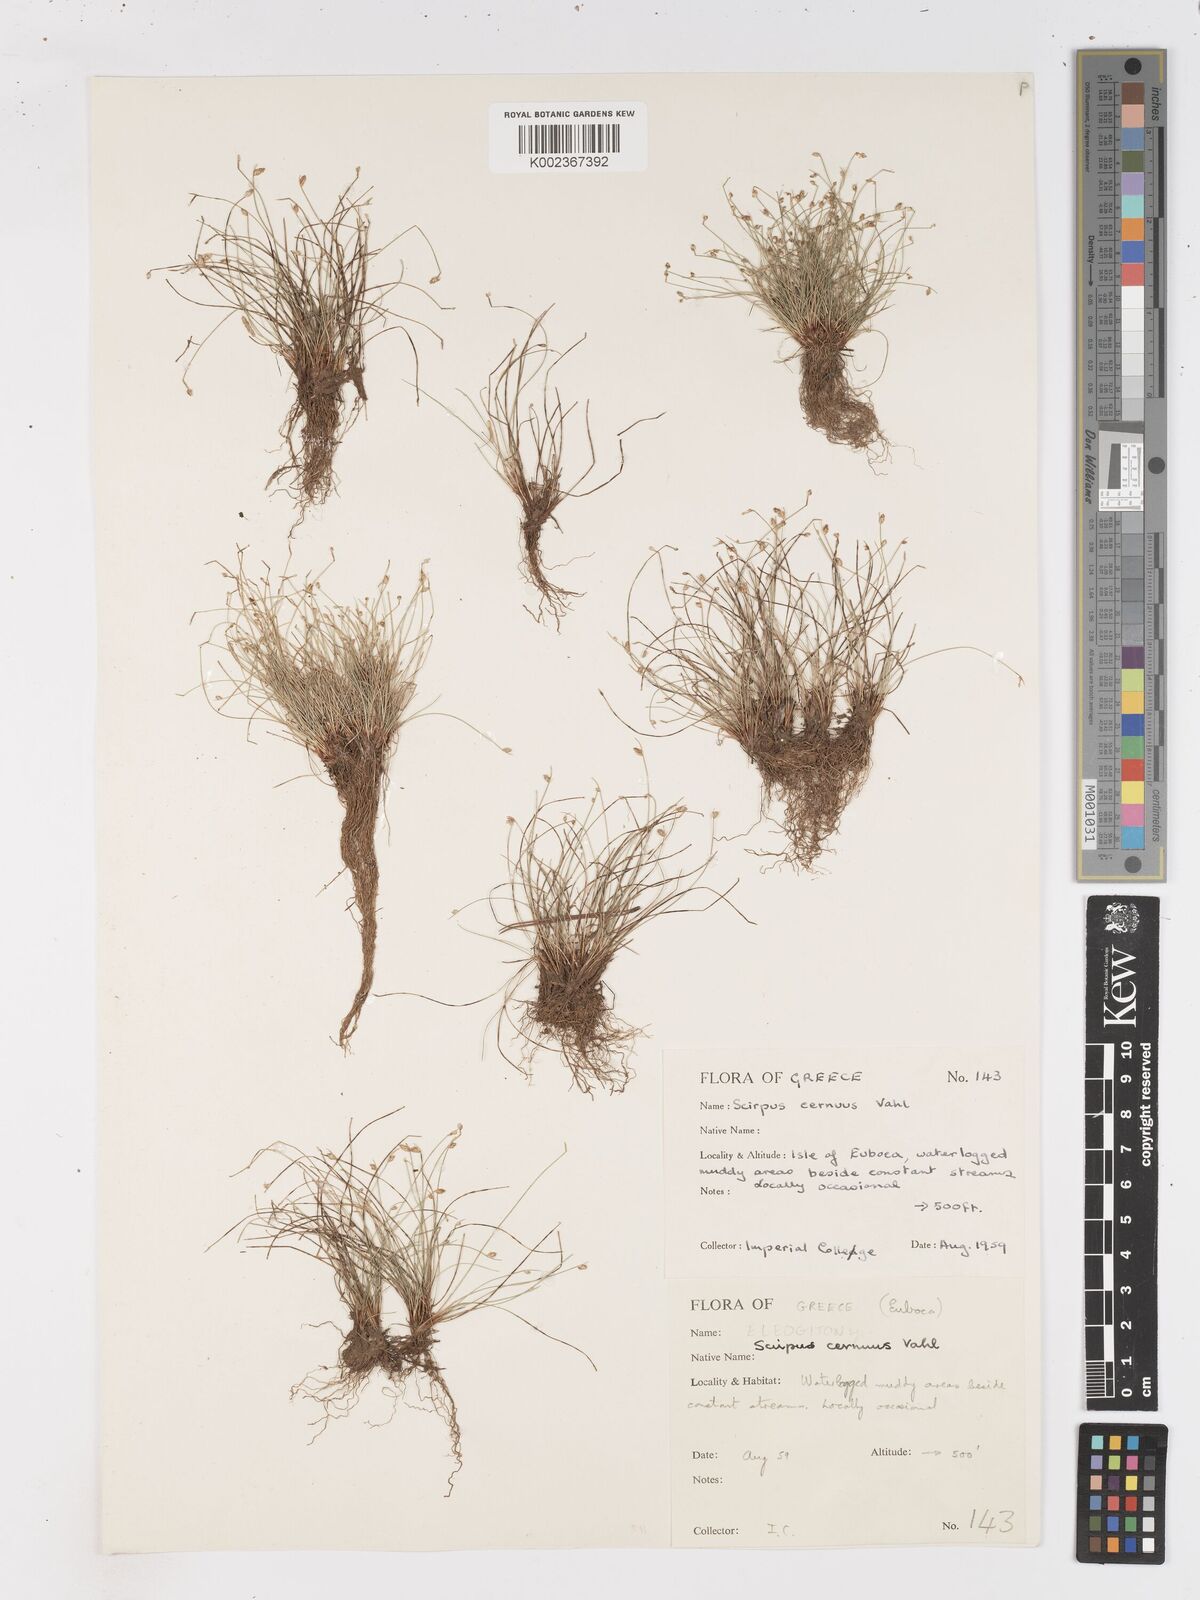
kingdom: Plantae
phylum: Tracheophyta
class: Liliopsida
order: Poales
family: Cyperaceae
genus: Isolepis
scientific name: Isolepis cernua
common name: Slender club-rush
